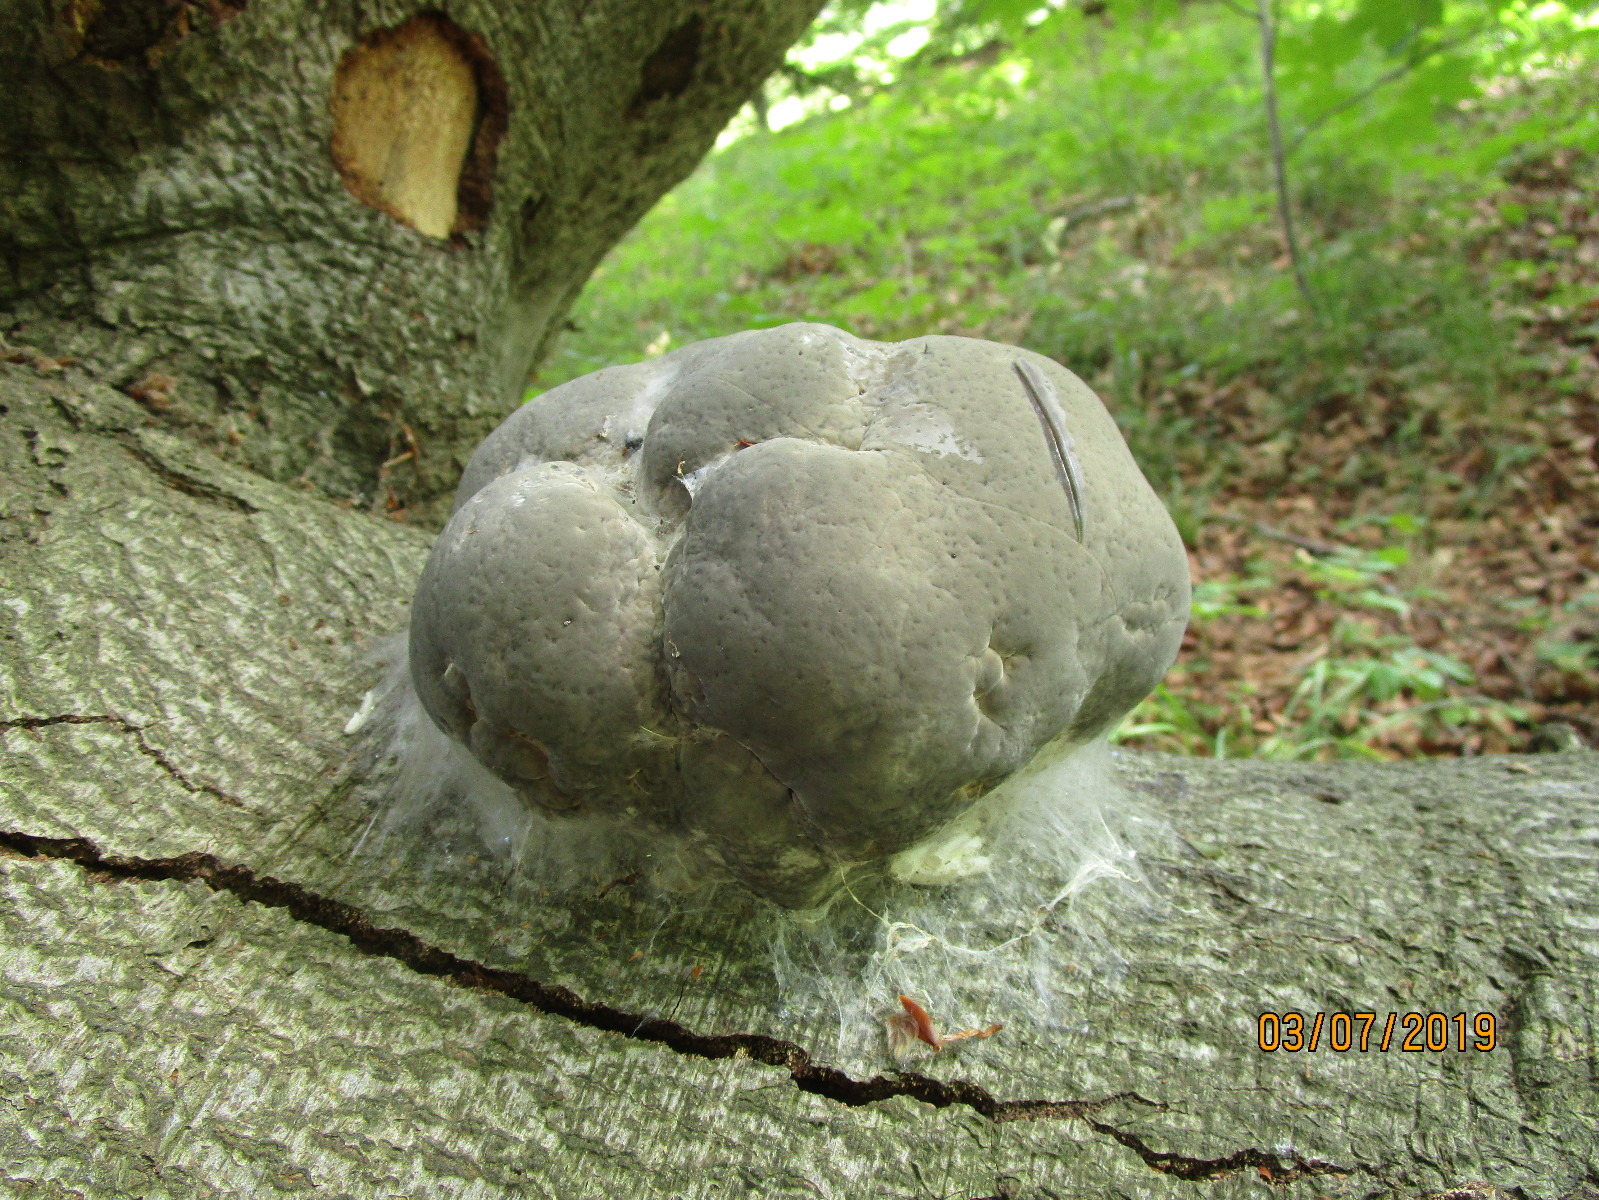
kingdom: Fungi
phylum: Basidiomycota
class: Agaricomycetes
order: Polyporales
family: Polyporaceae
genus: Fomes
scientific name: Fomes fomentarius
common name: tøndersvamp
